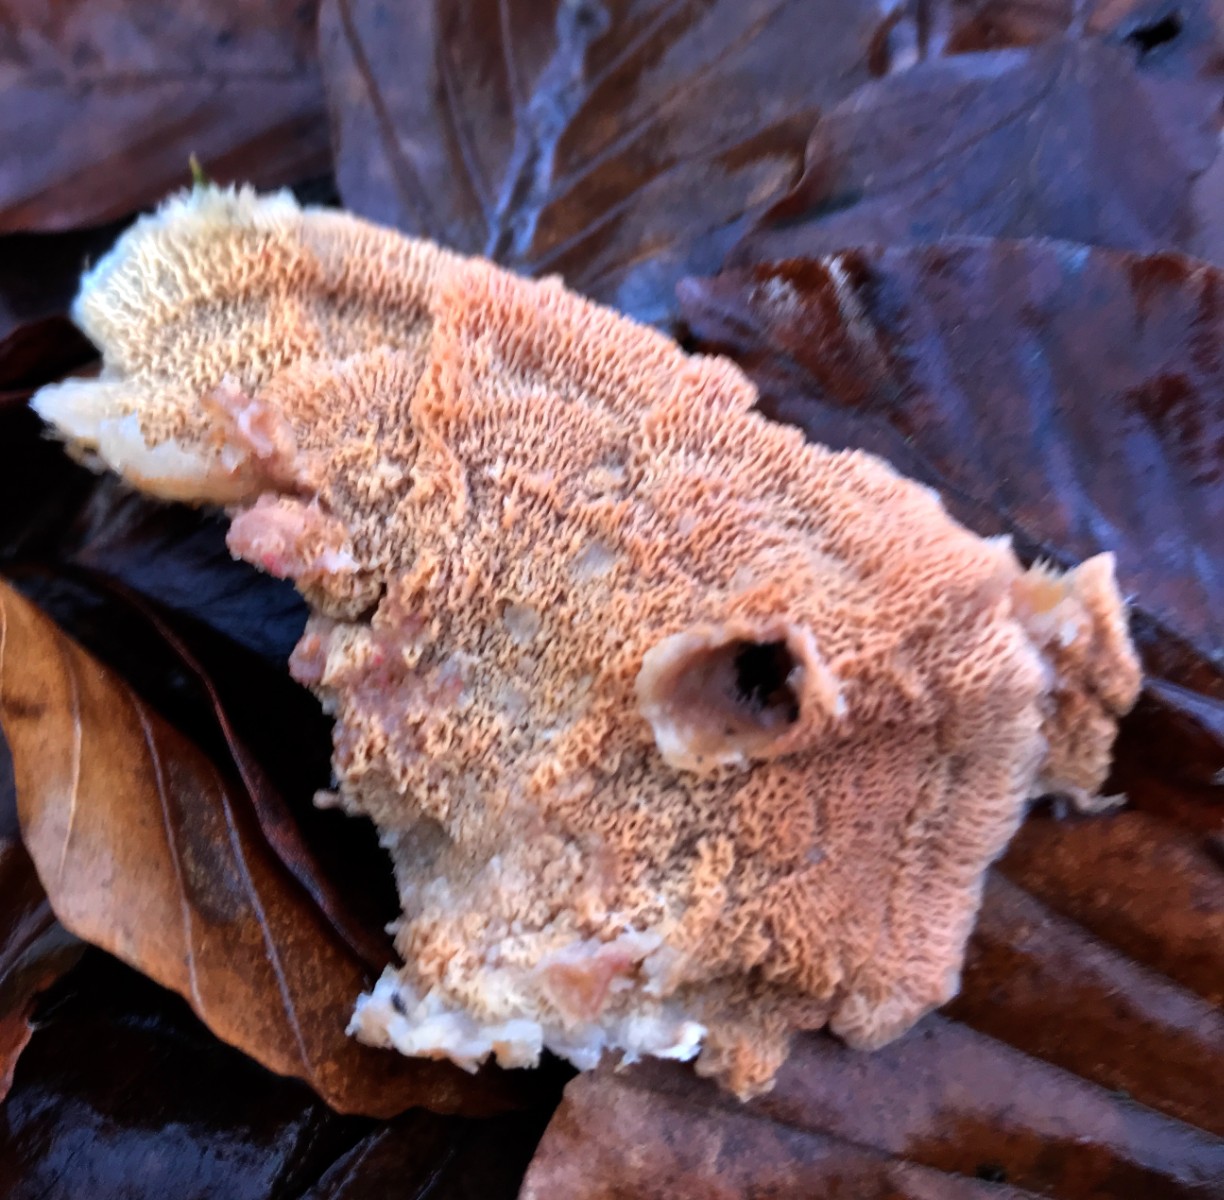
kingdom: Fungi
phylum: Basidiomycota
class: Agaricomycetes
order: Polyporales
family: Meruliaceae
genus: Phlebia
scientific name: Phlebia tremellosa
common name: bævrende åresvamp
